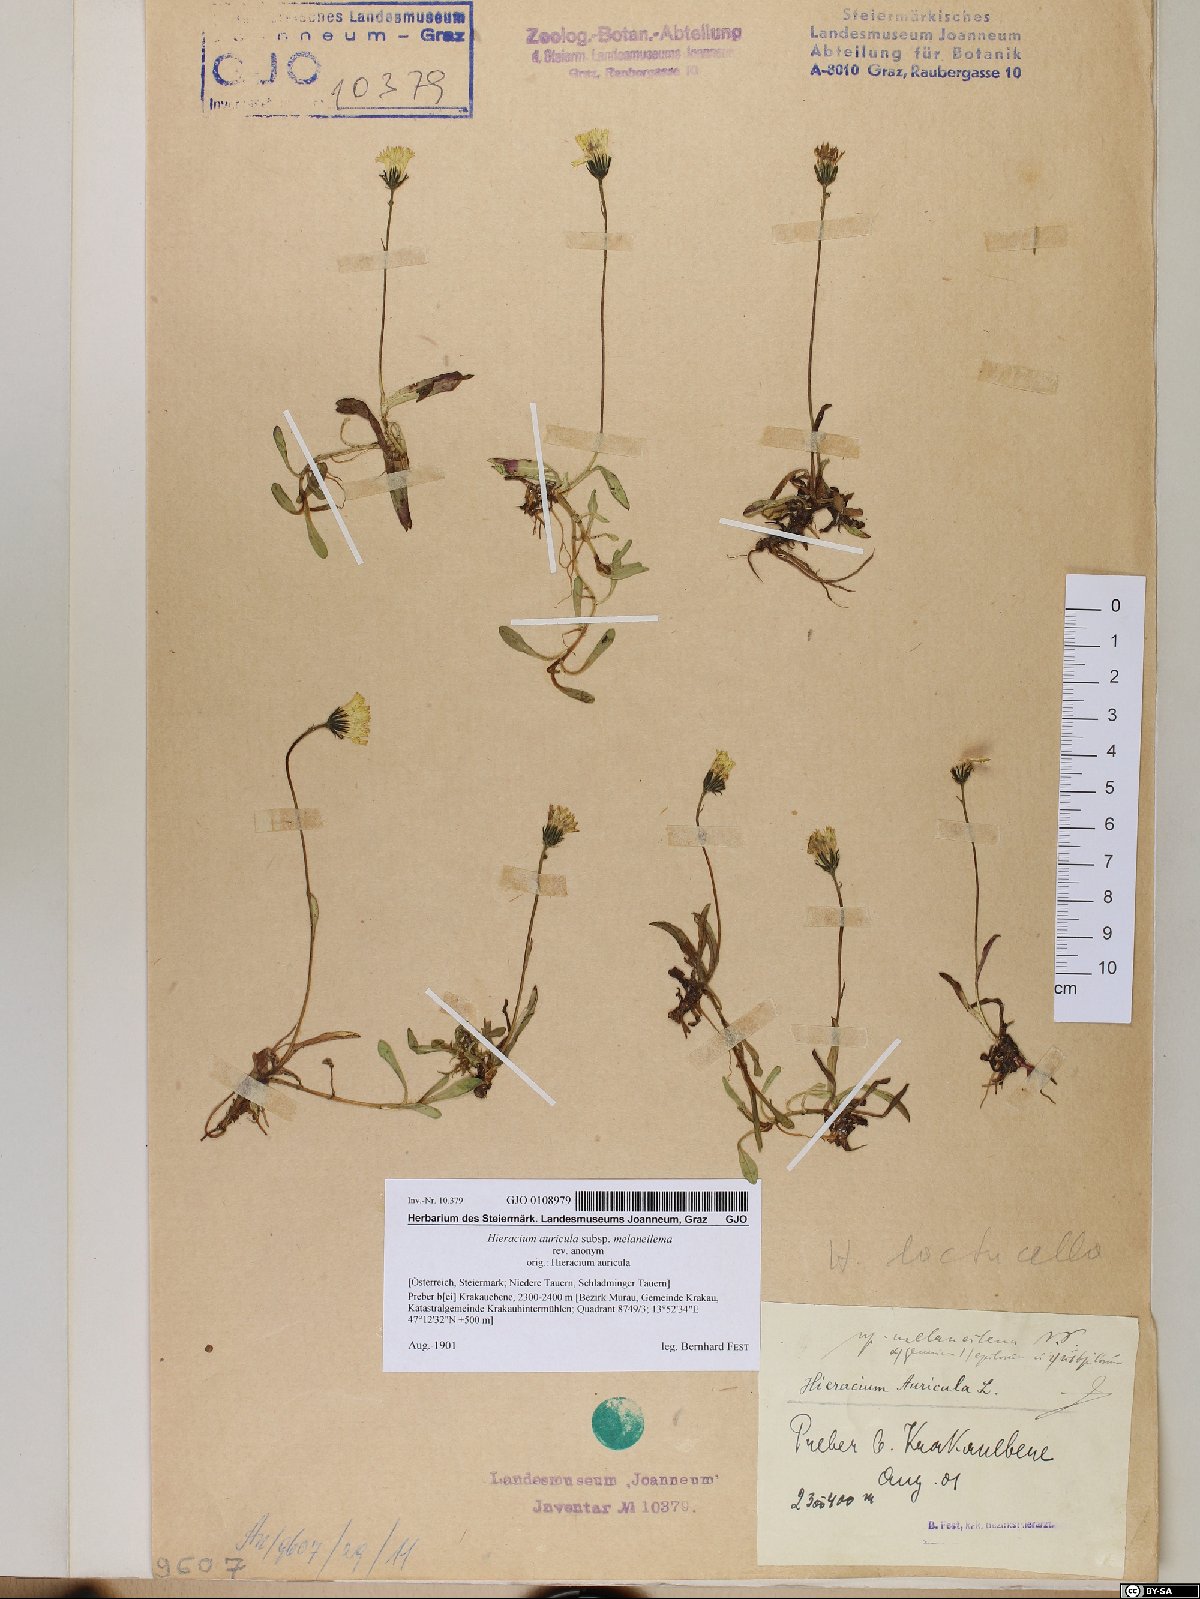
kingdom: Plantae
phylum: Tracheophyta
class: Magnoliopsida
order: Asterales
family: Asteraceae
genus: Pilosella
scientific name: Pilosella lactucella
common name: Glaucous fox-and-cubs
